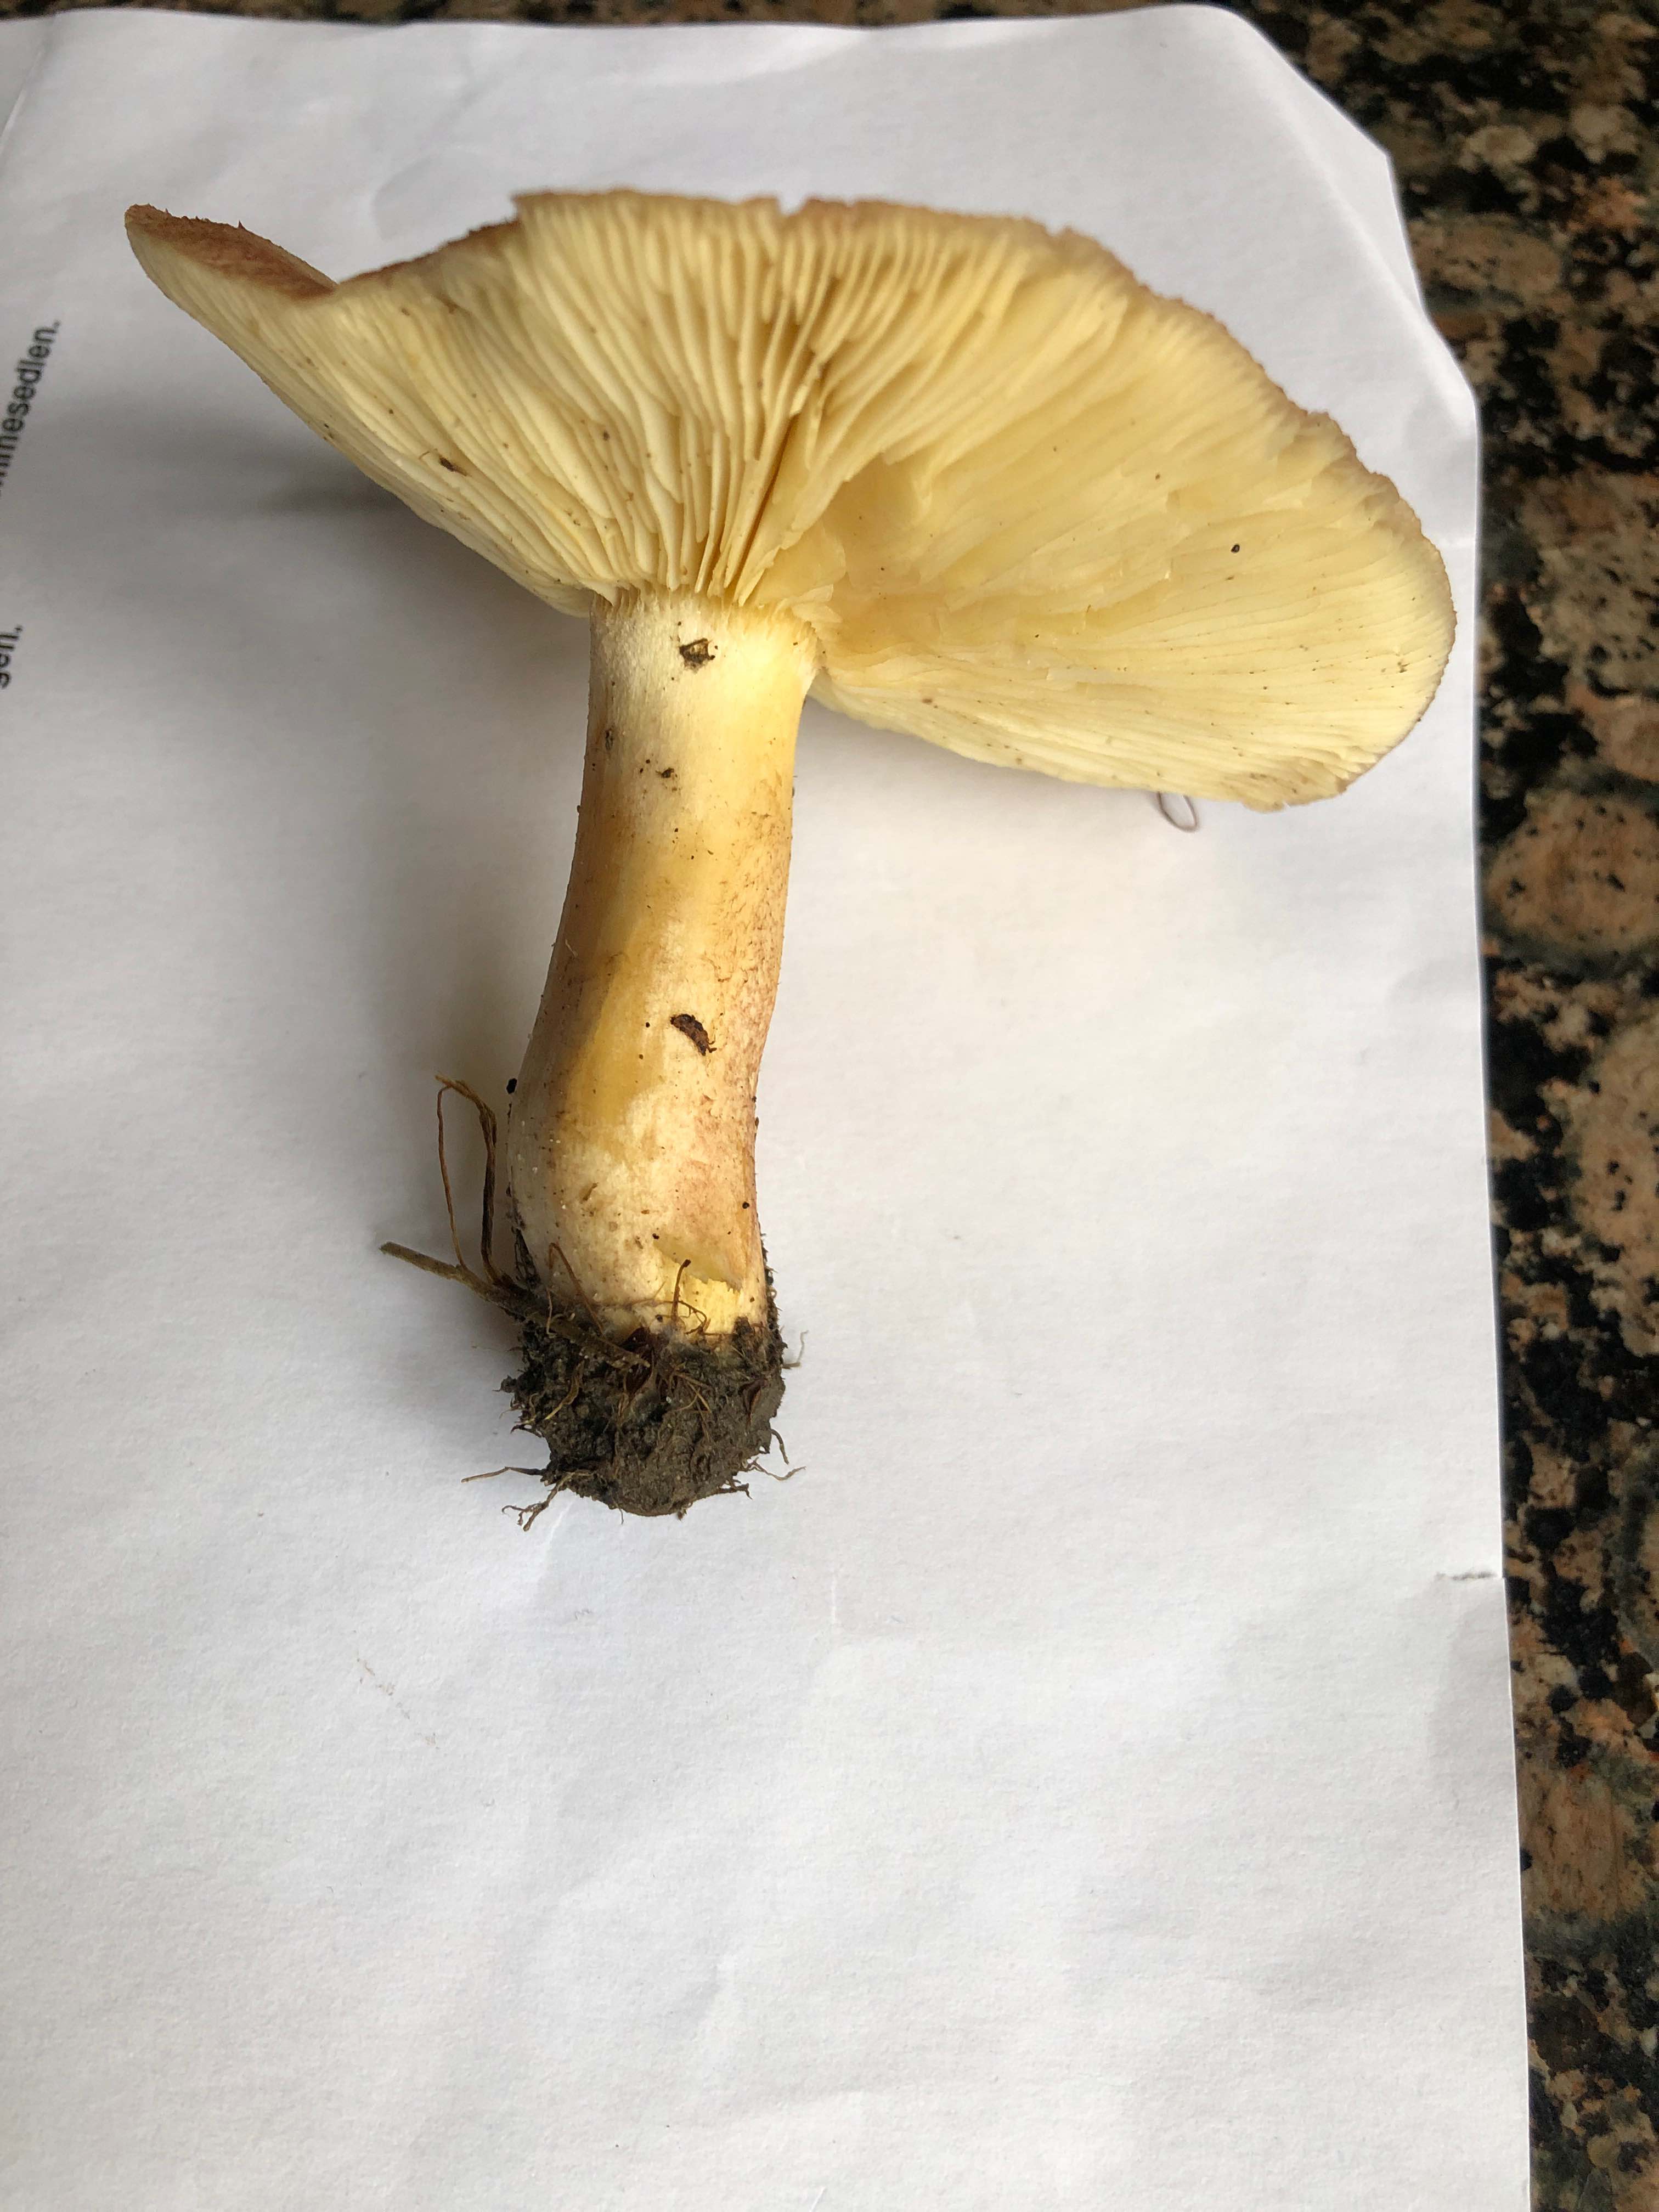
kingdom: Fungi
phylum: Basidiomycota
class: Agaricomycetes
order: Agaricales
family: Tricholomataceae
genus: Tricholomopsis
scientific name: Tricholomopsis rutilans
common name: purpur-væbnerhat
